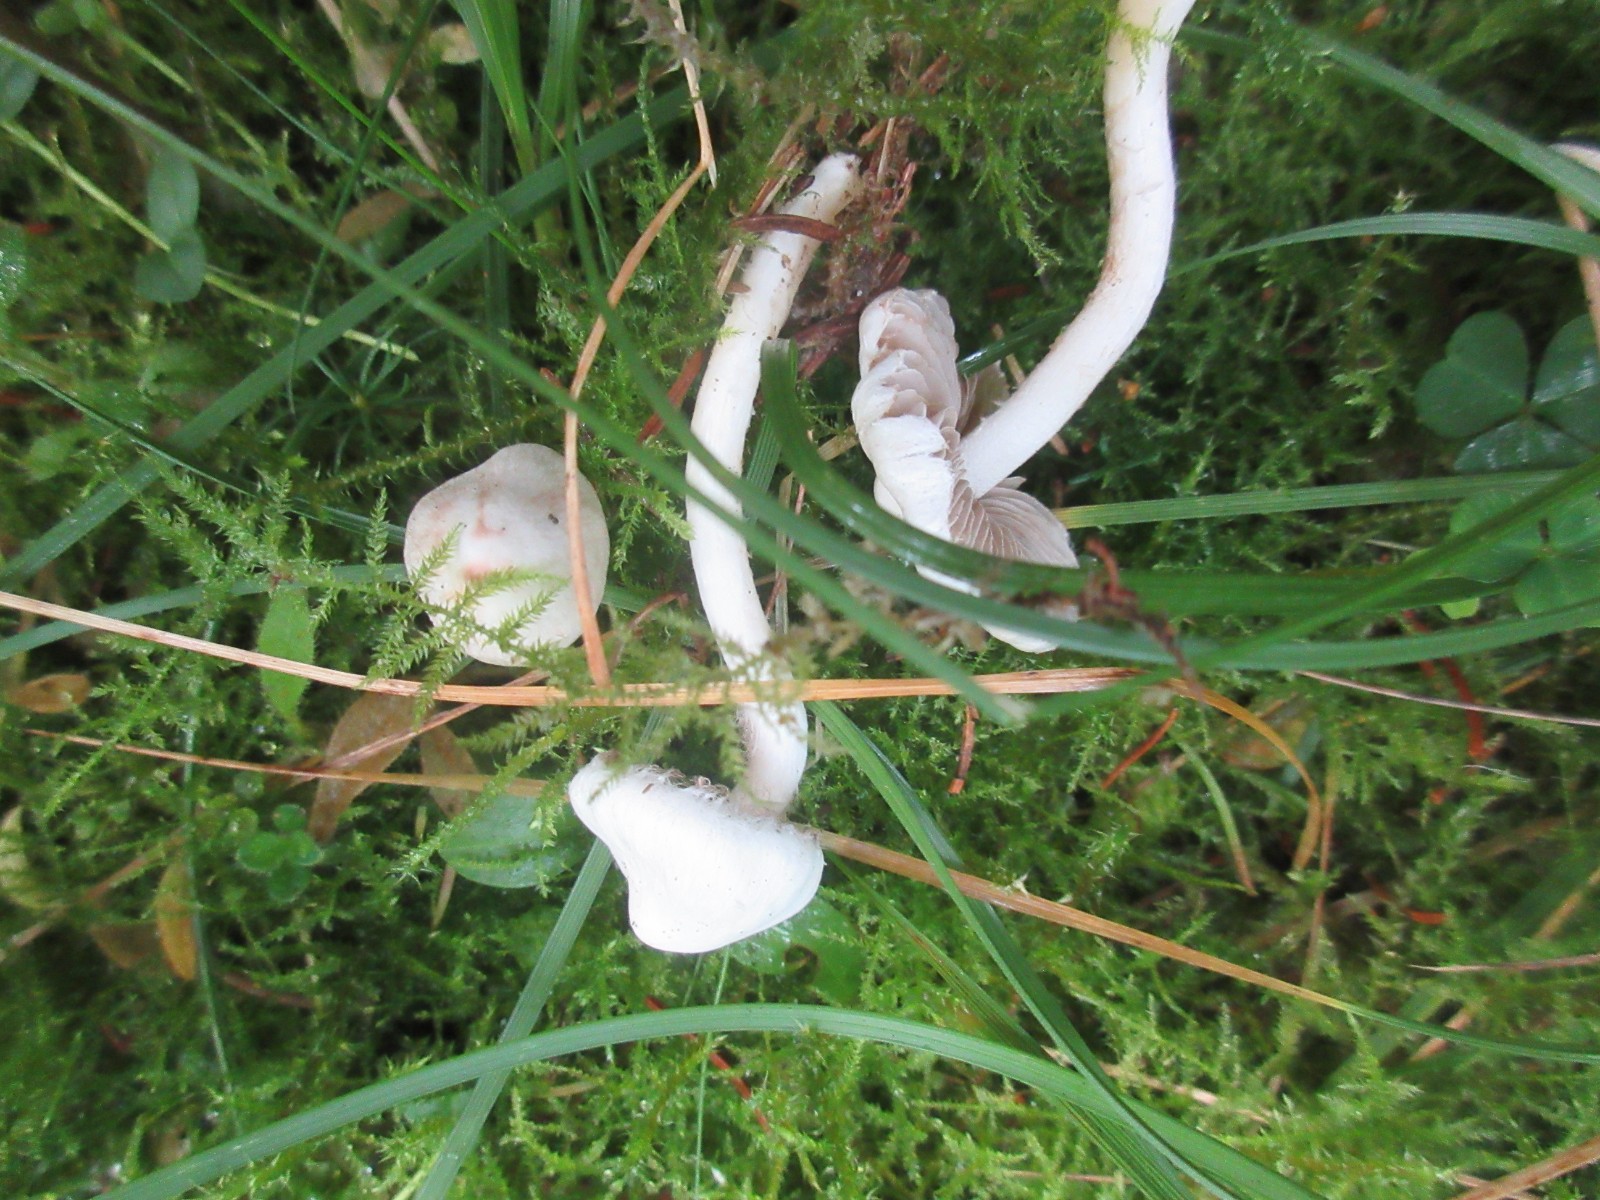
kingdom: Fungi
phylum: Basidiomycota
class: Agaricomycetes
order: Agaricales
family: Inocybaceae
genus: Inocybe
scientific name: Inocybe
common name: almindelig trævlhat
